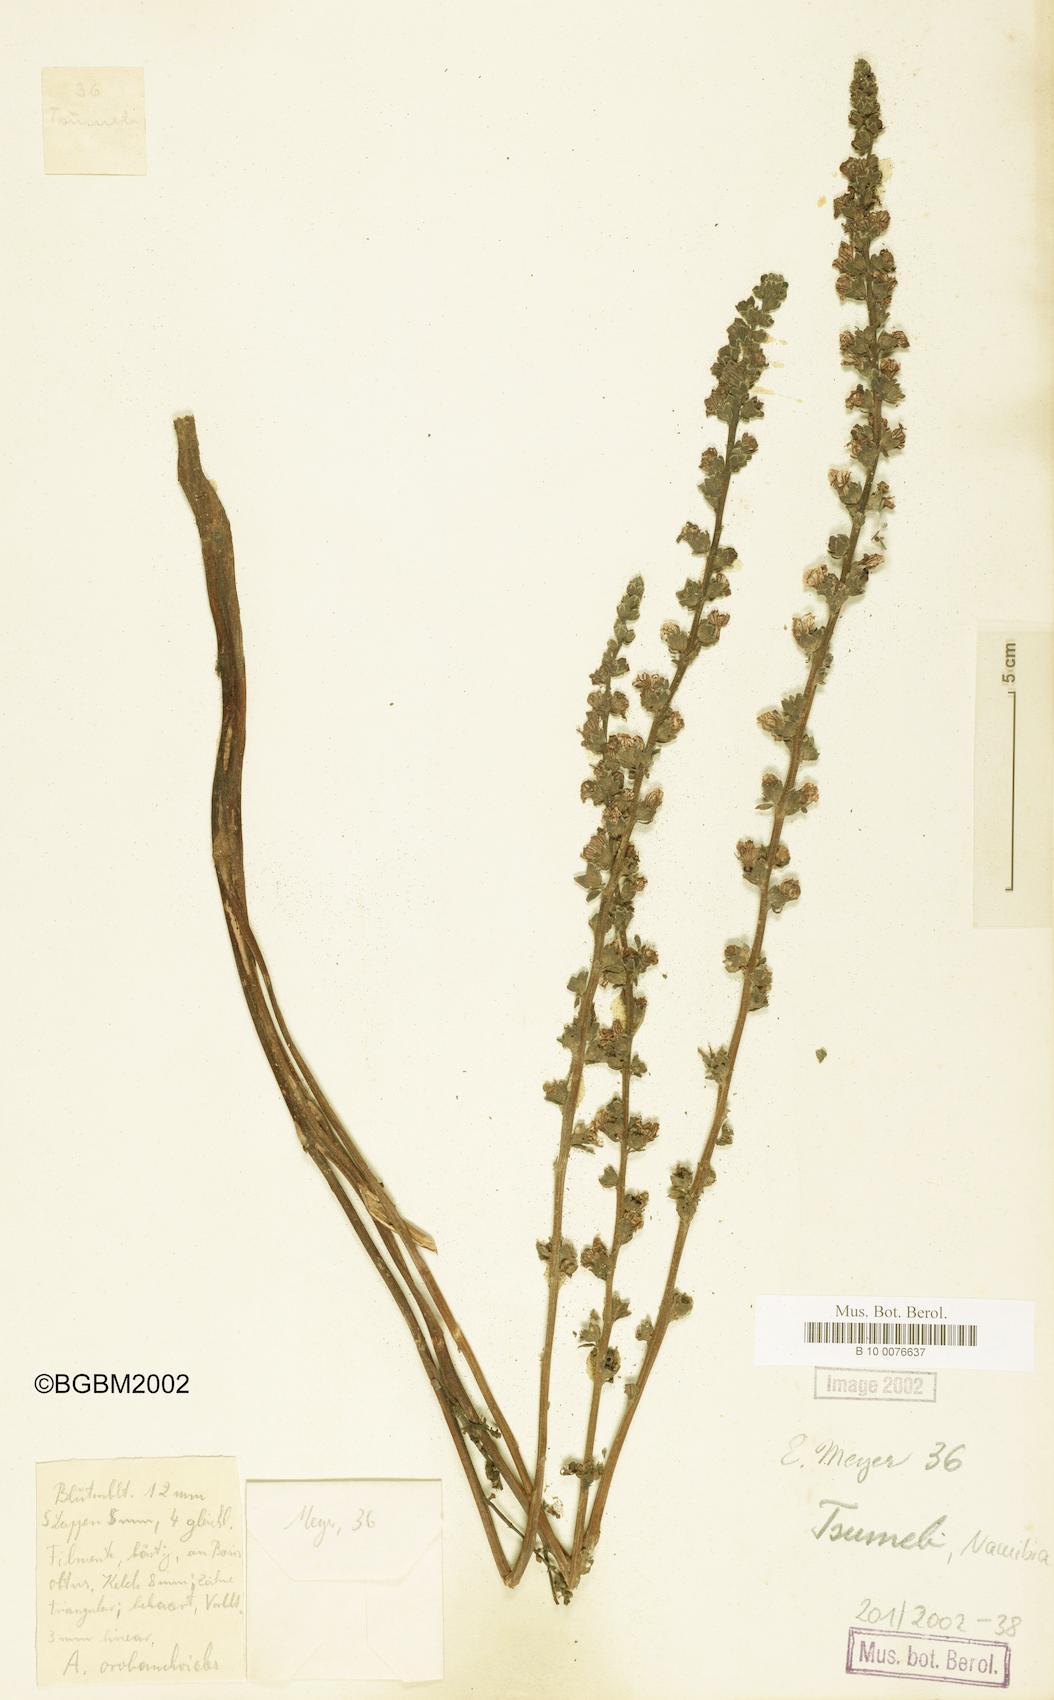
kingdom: Plantae
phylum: Tracheophyta
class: Magnoliopsida
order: Lamiales
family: Orobanchaceae
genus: Alectra
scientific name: Alectra orobanchoides
